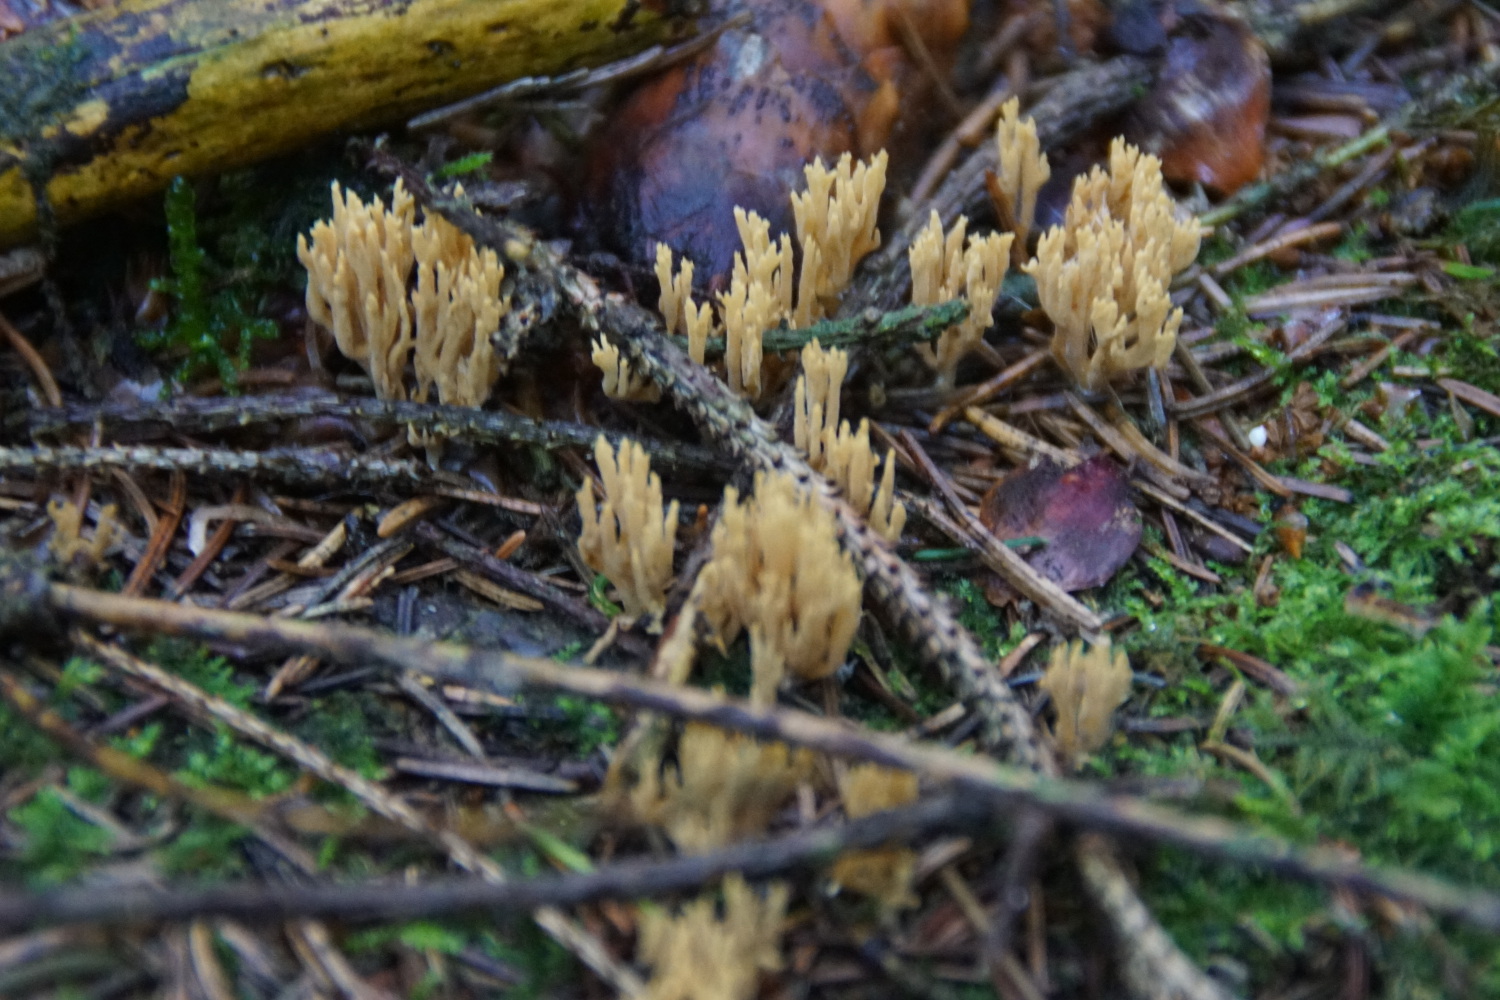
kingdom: Fungi
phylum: Basidiomycota
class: Agaricomycetes
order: Gomphales
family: Gomphaceae
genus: Phaeoclavulina
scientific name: Phaeoclavulina eumorpha
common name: gran-koralsvamp
